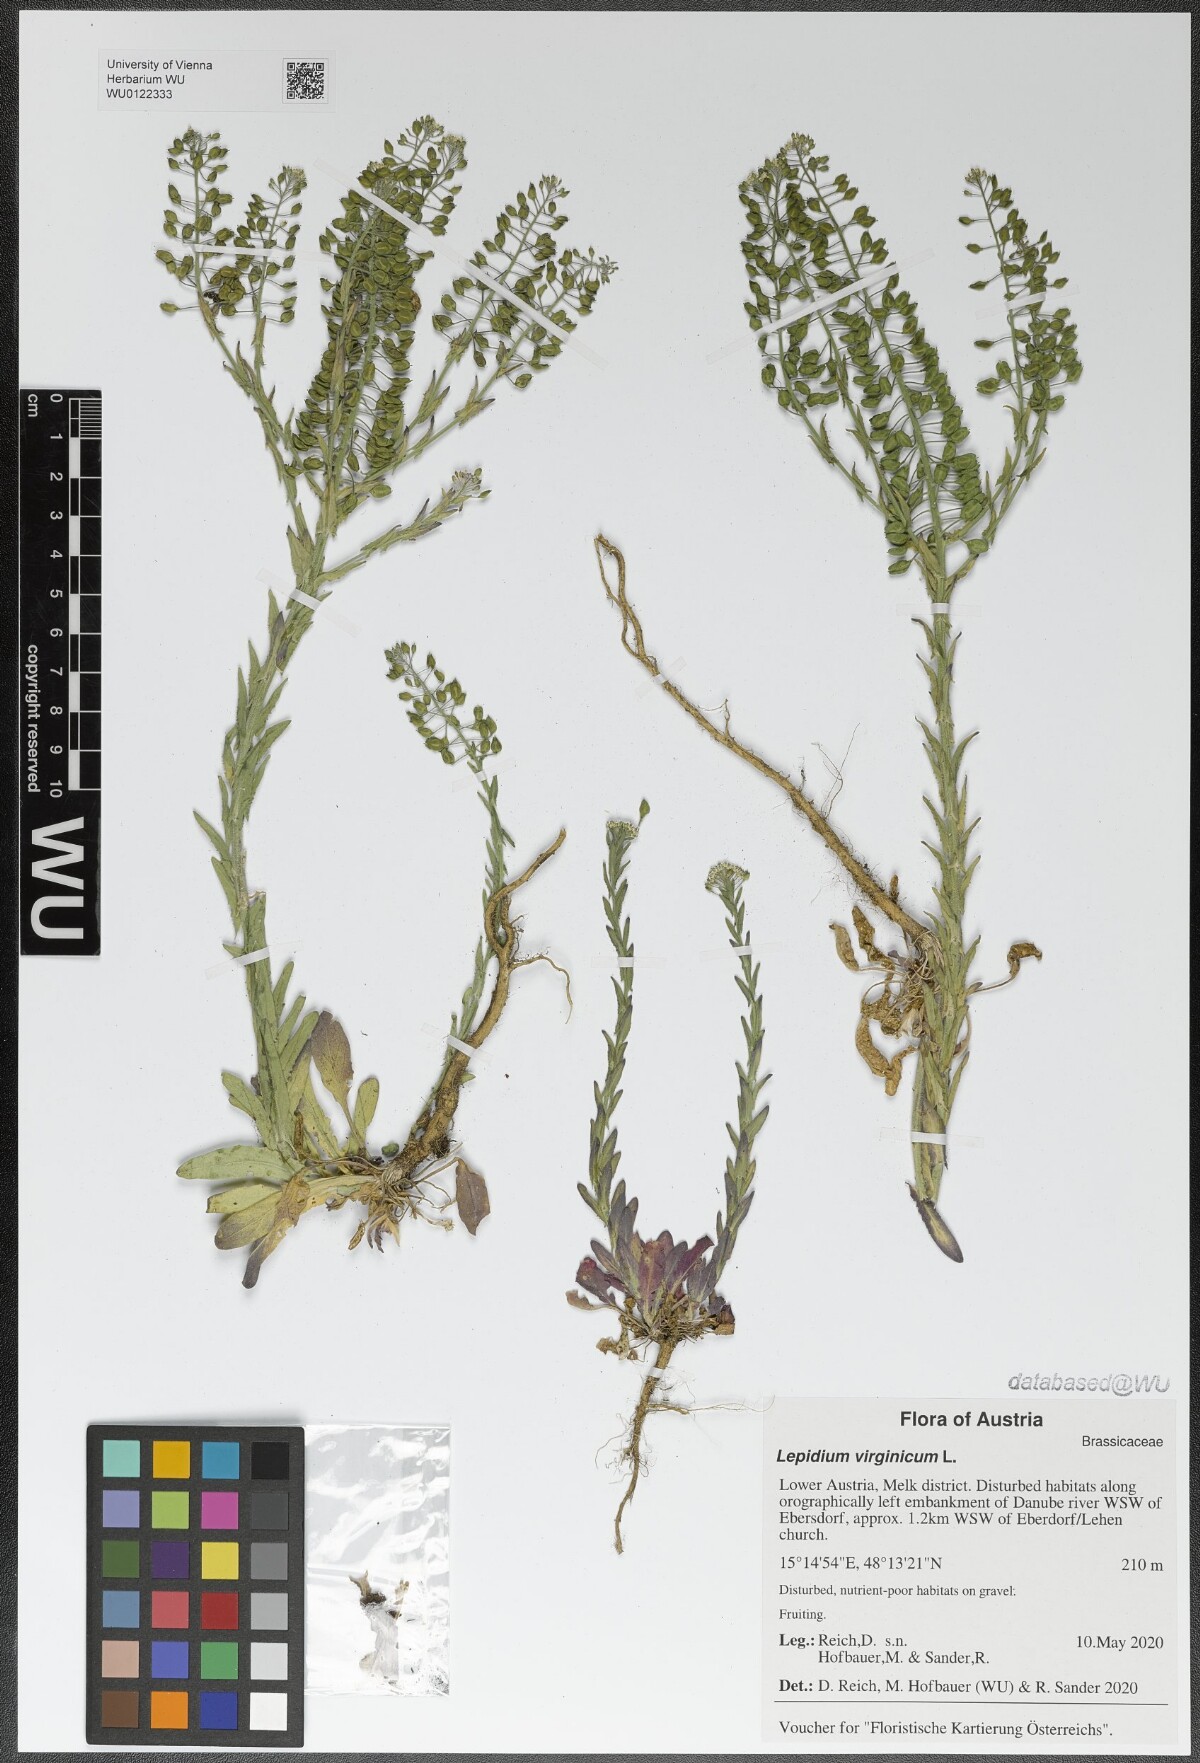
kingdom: Plantae
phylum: Tracheophyta
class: Magnoliopsida
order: Brassicales
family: Brassicaceae
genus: Lepidium
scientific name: Lepidium virginicum
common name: Least pepperwort
